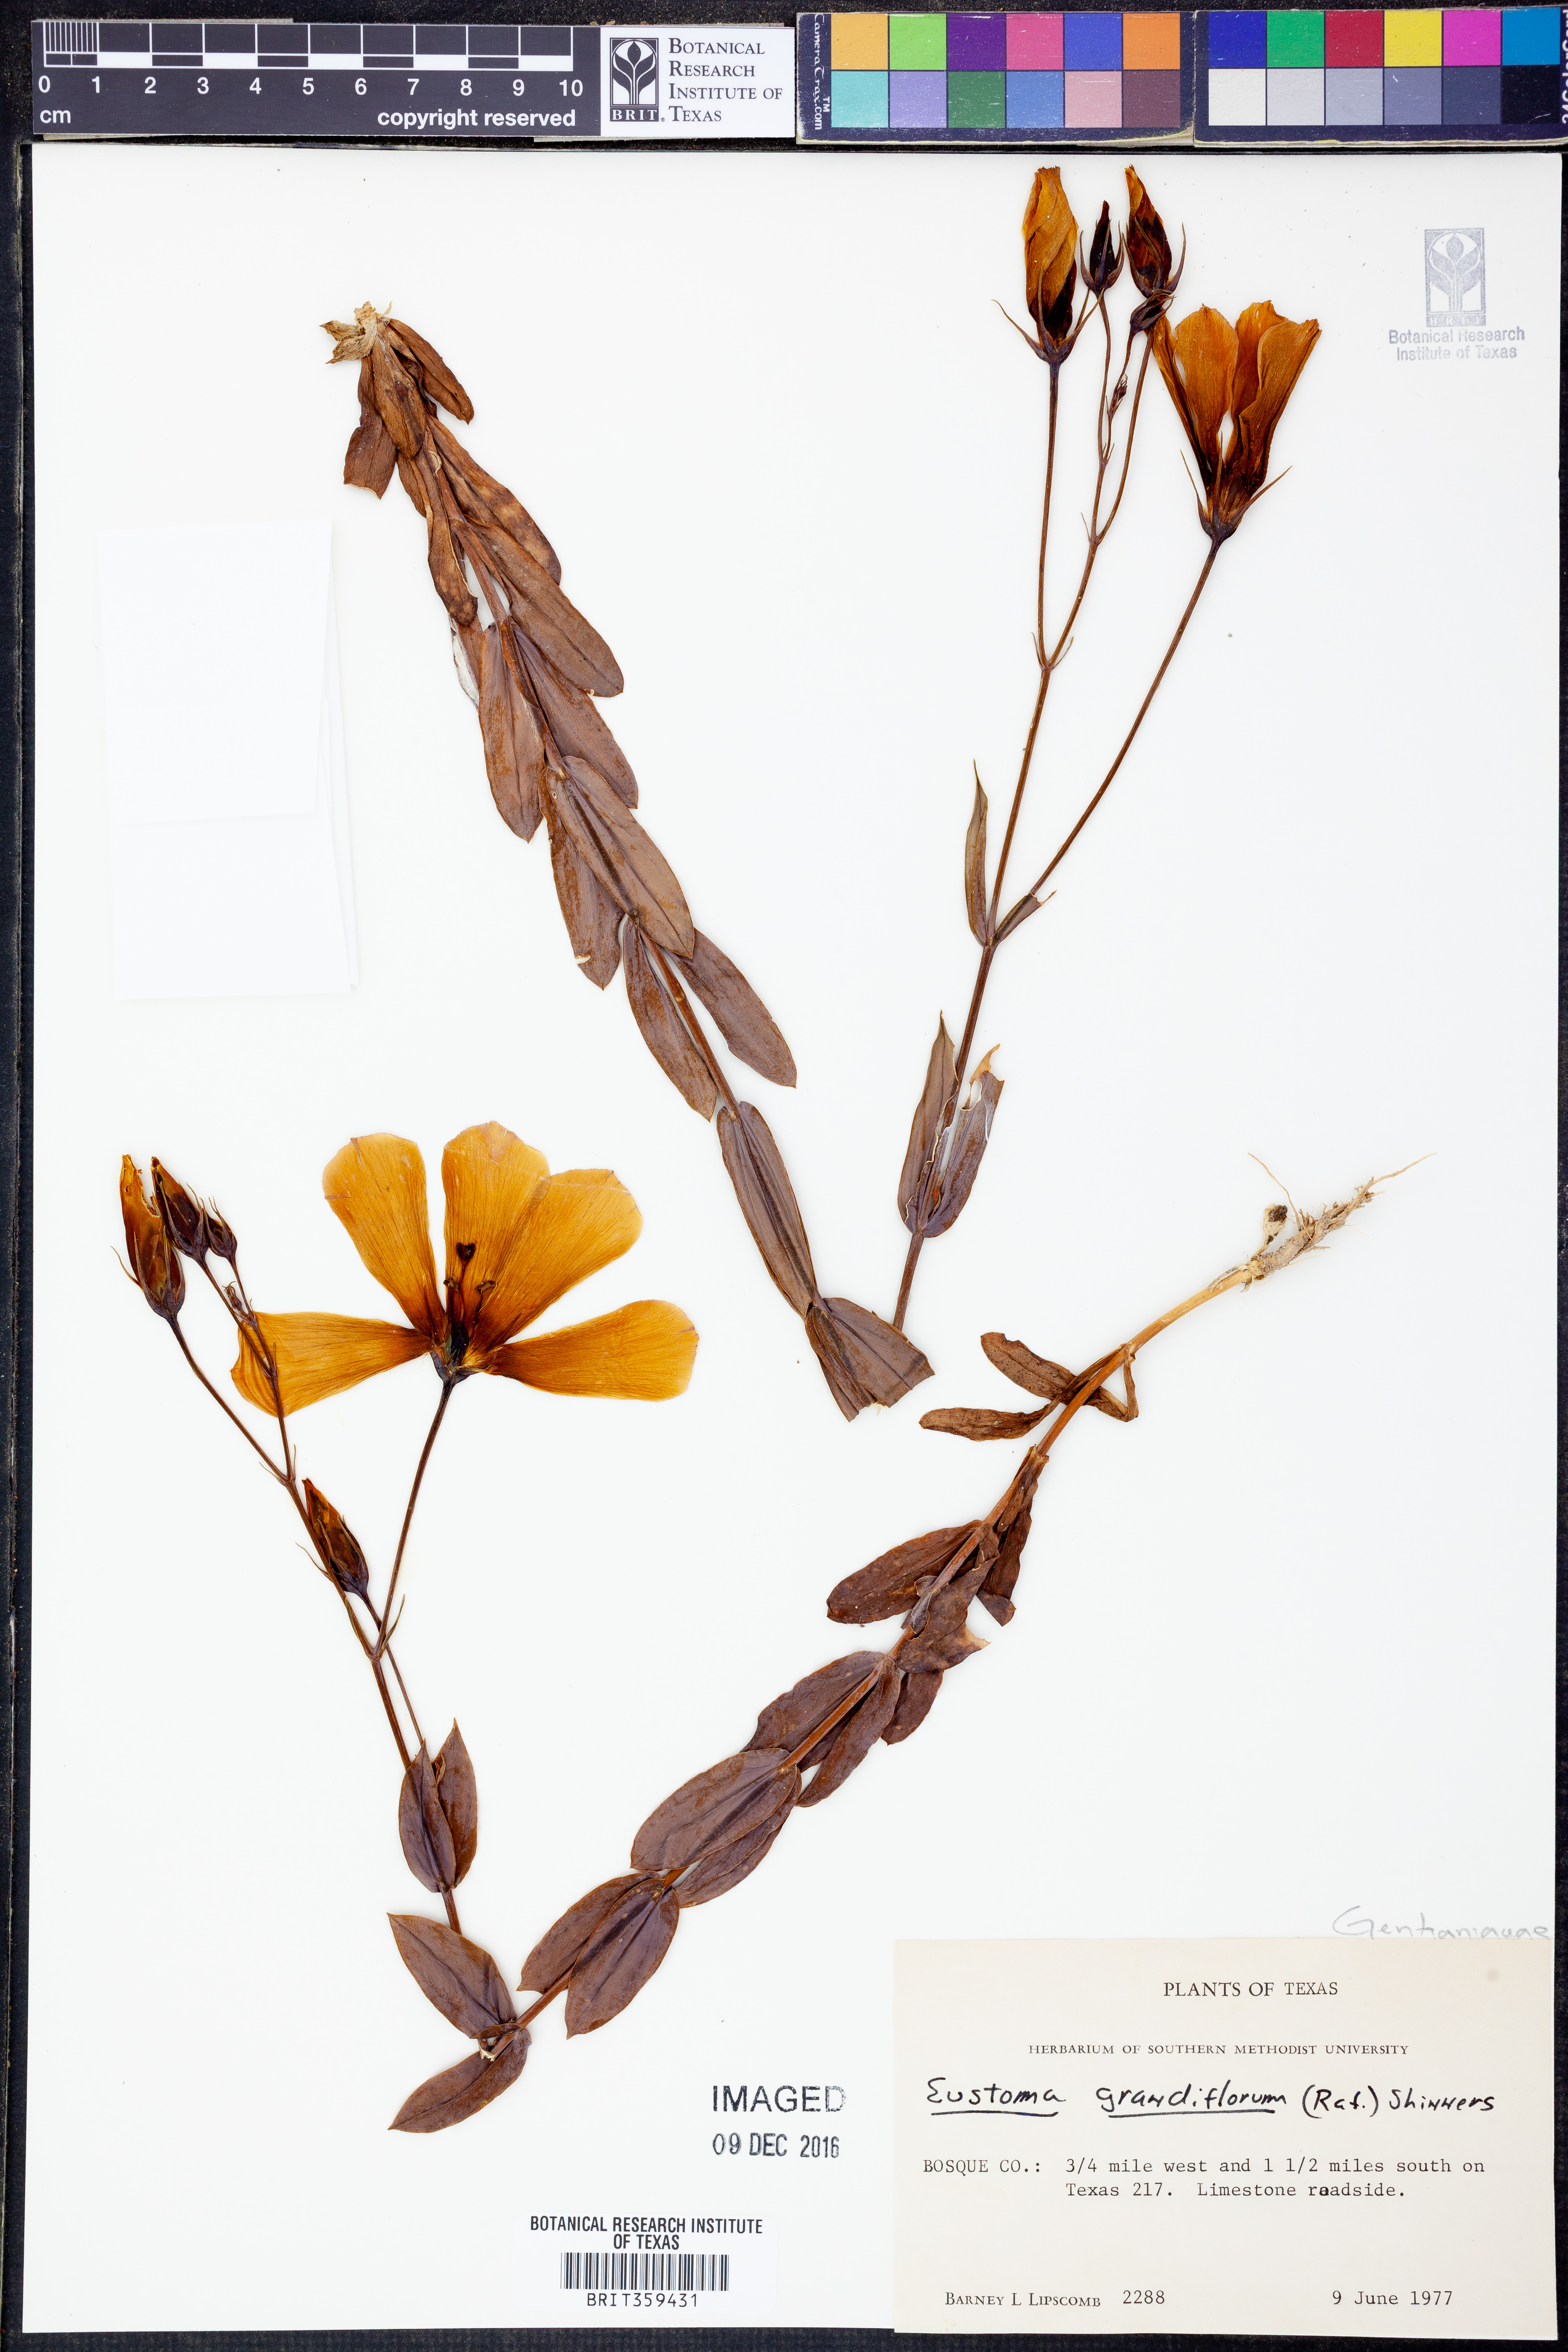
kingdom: Plantae
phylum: Tracheophyta
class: Magnoliopsida
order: Gentianales
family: Gentianaceae
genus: Eustoma
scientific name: Eustoma russellianum
